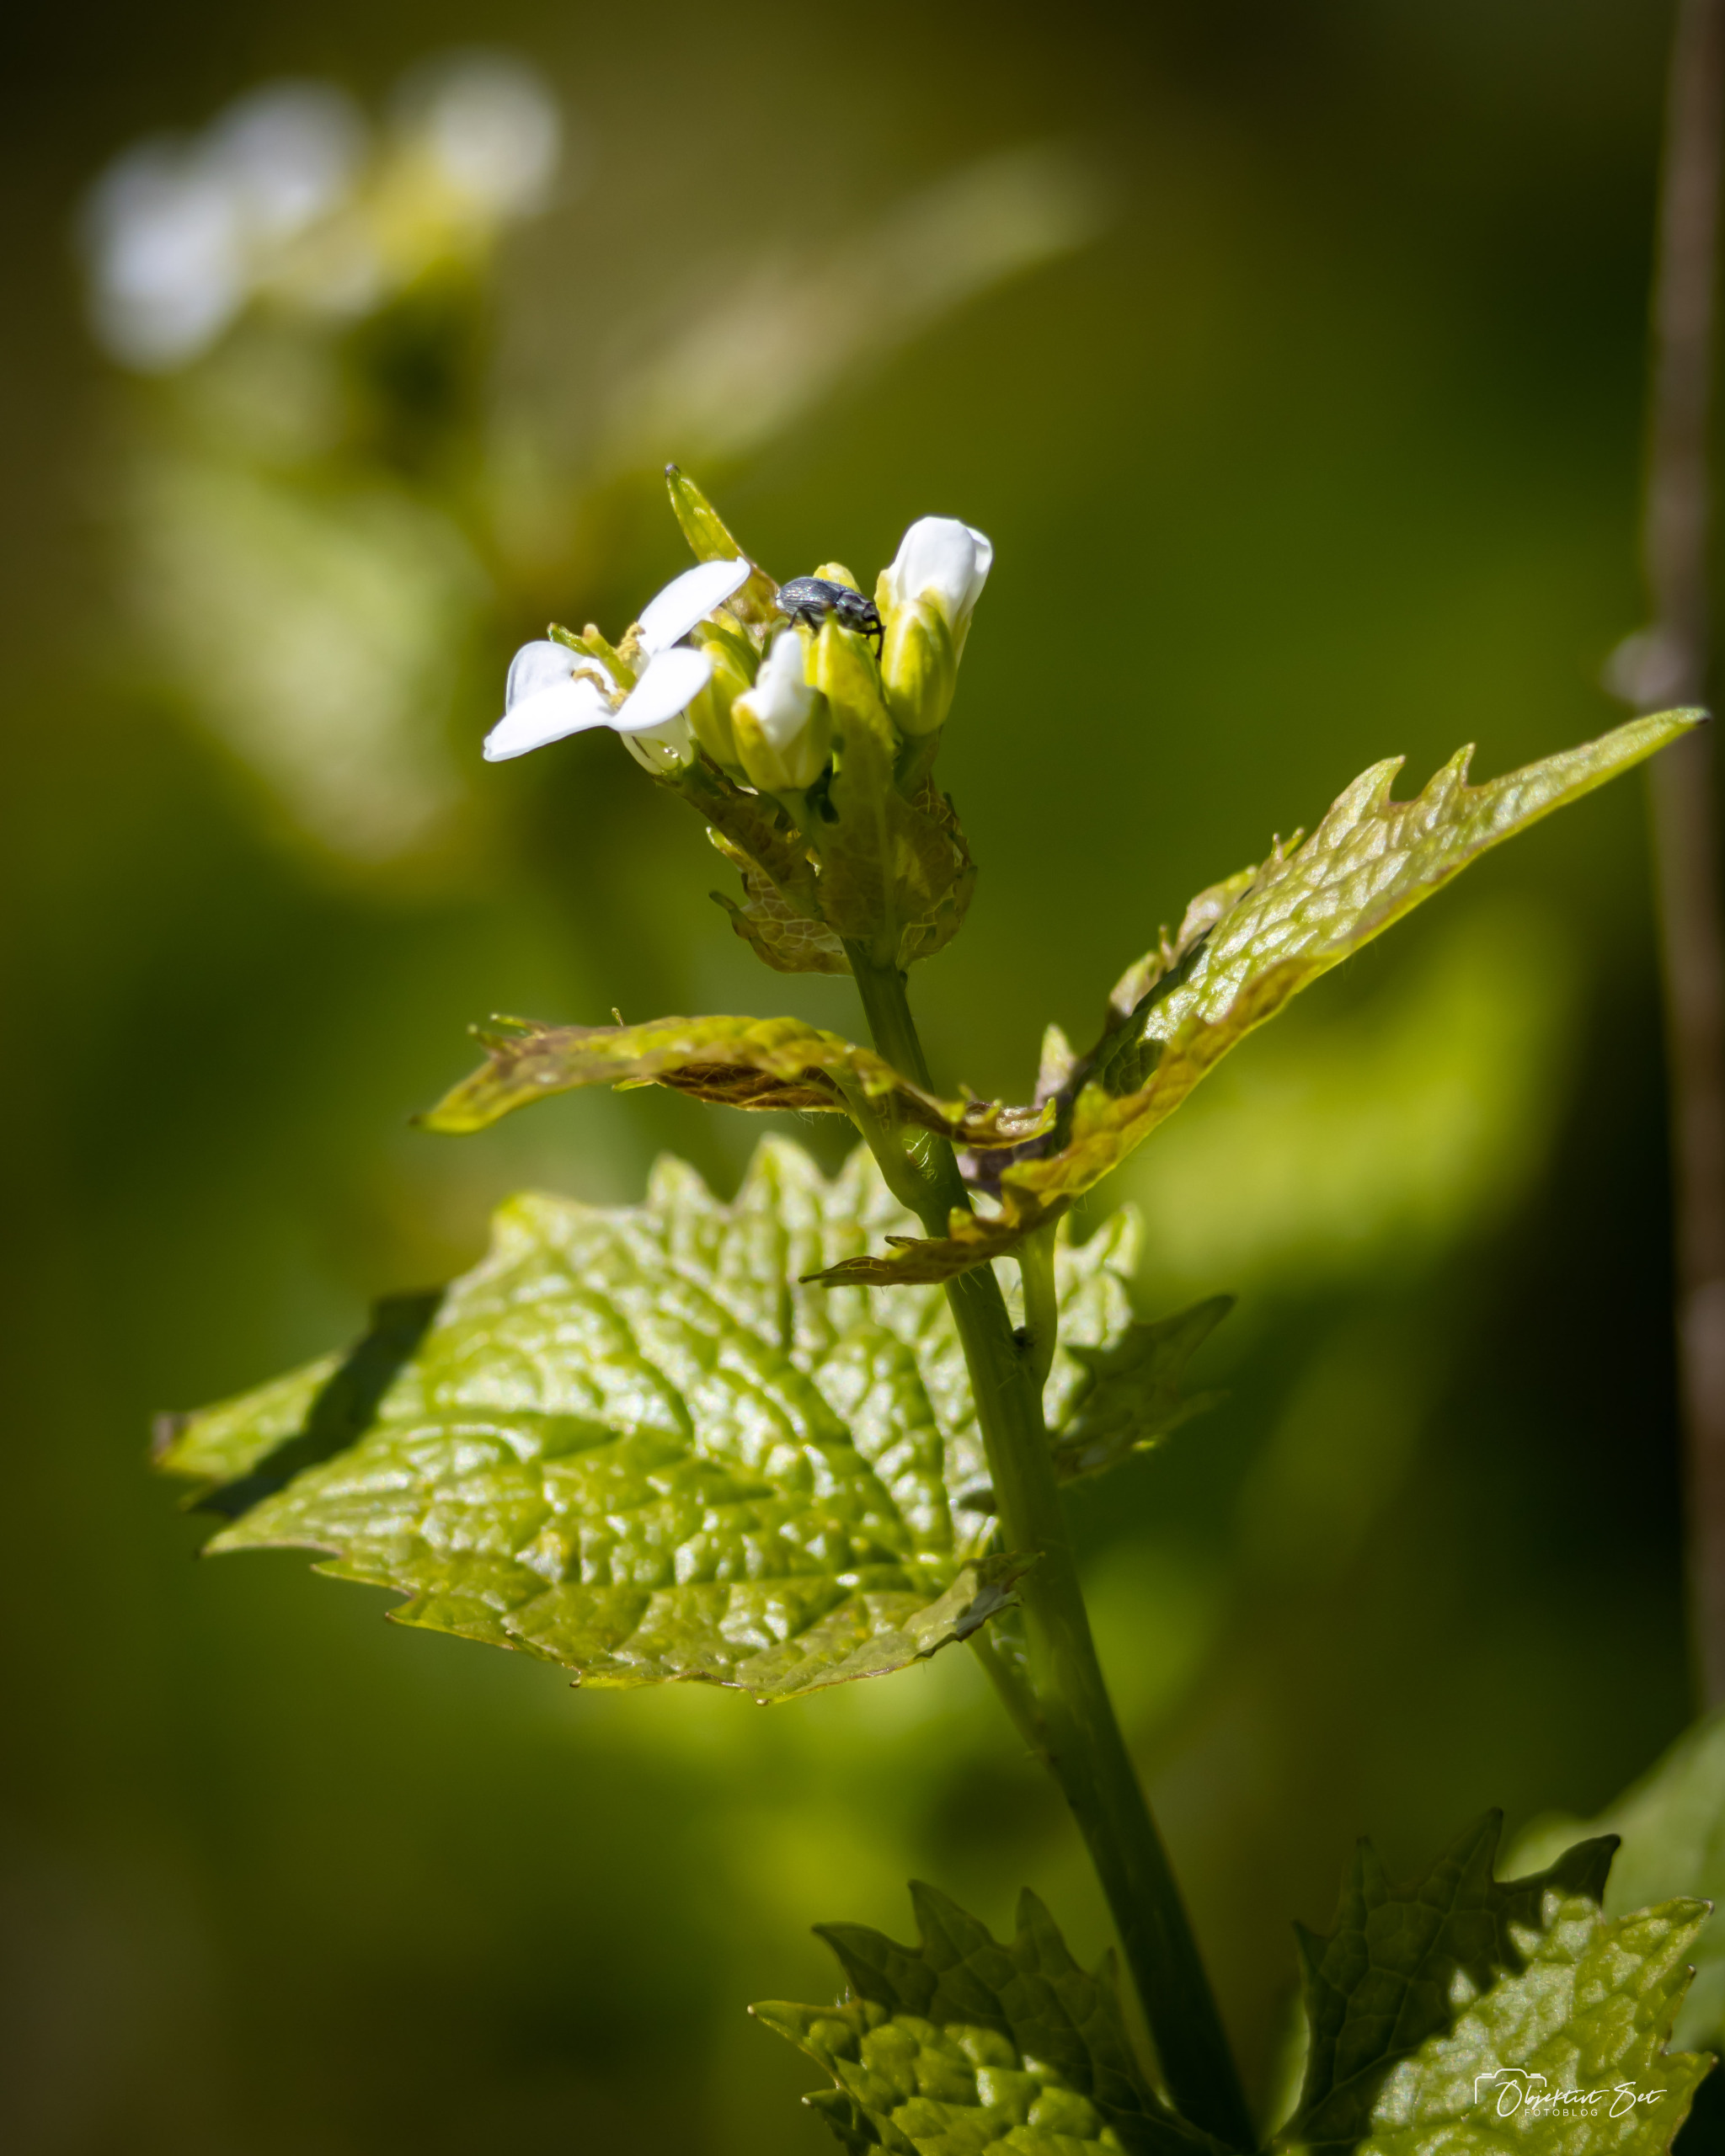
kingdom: Plantae
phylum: Tracheophyta
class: Magnoliopsida
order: Brassicales
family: Brassicaceae
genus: Alliaria
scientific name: Alliaria petiolata
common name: Løgkarse
